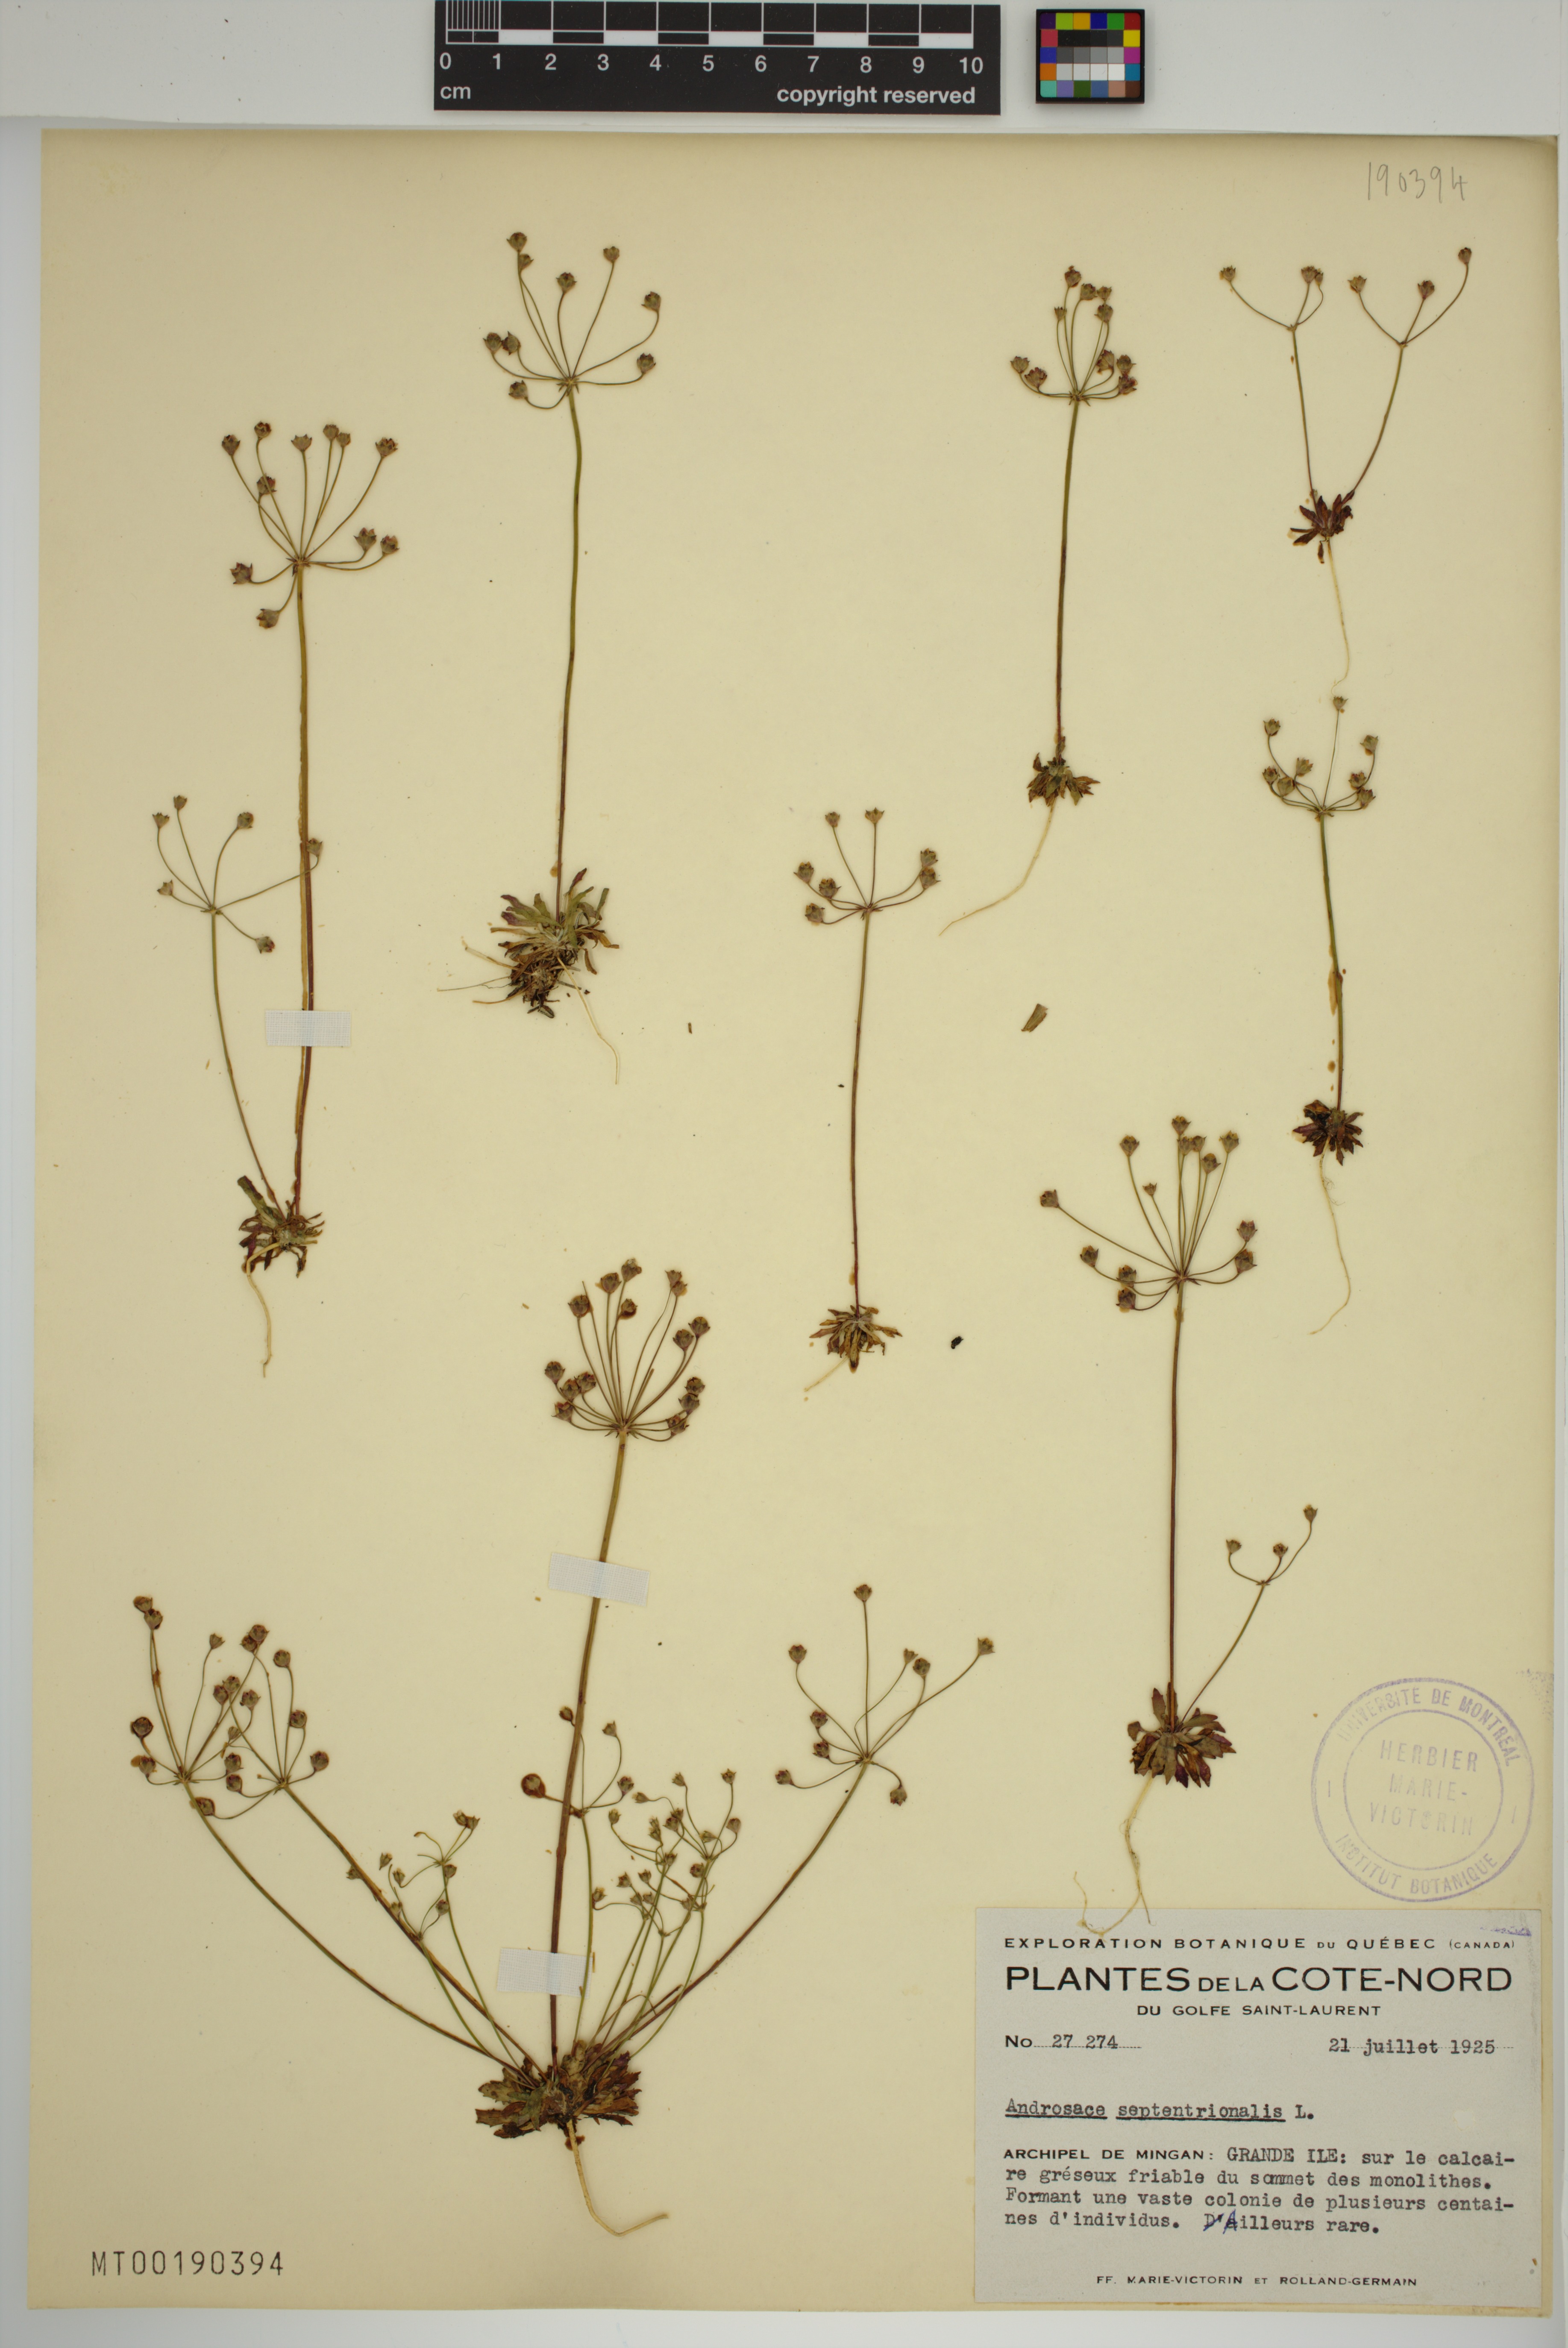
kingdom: Plantae
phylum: Tracheophyta
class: Magnoliopsida
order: Ericales
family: Primulaceae
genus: Androsace
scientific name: Androsace septentrionalis
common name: Hairy northern fairy-candelabra
